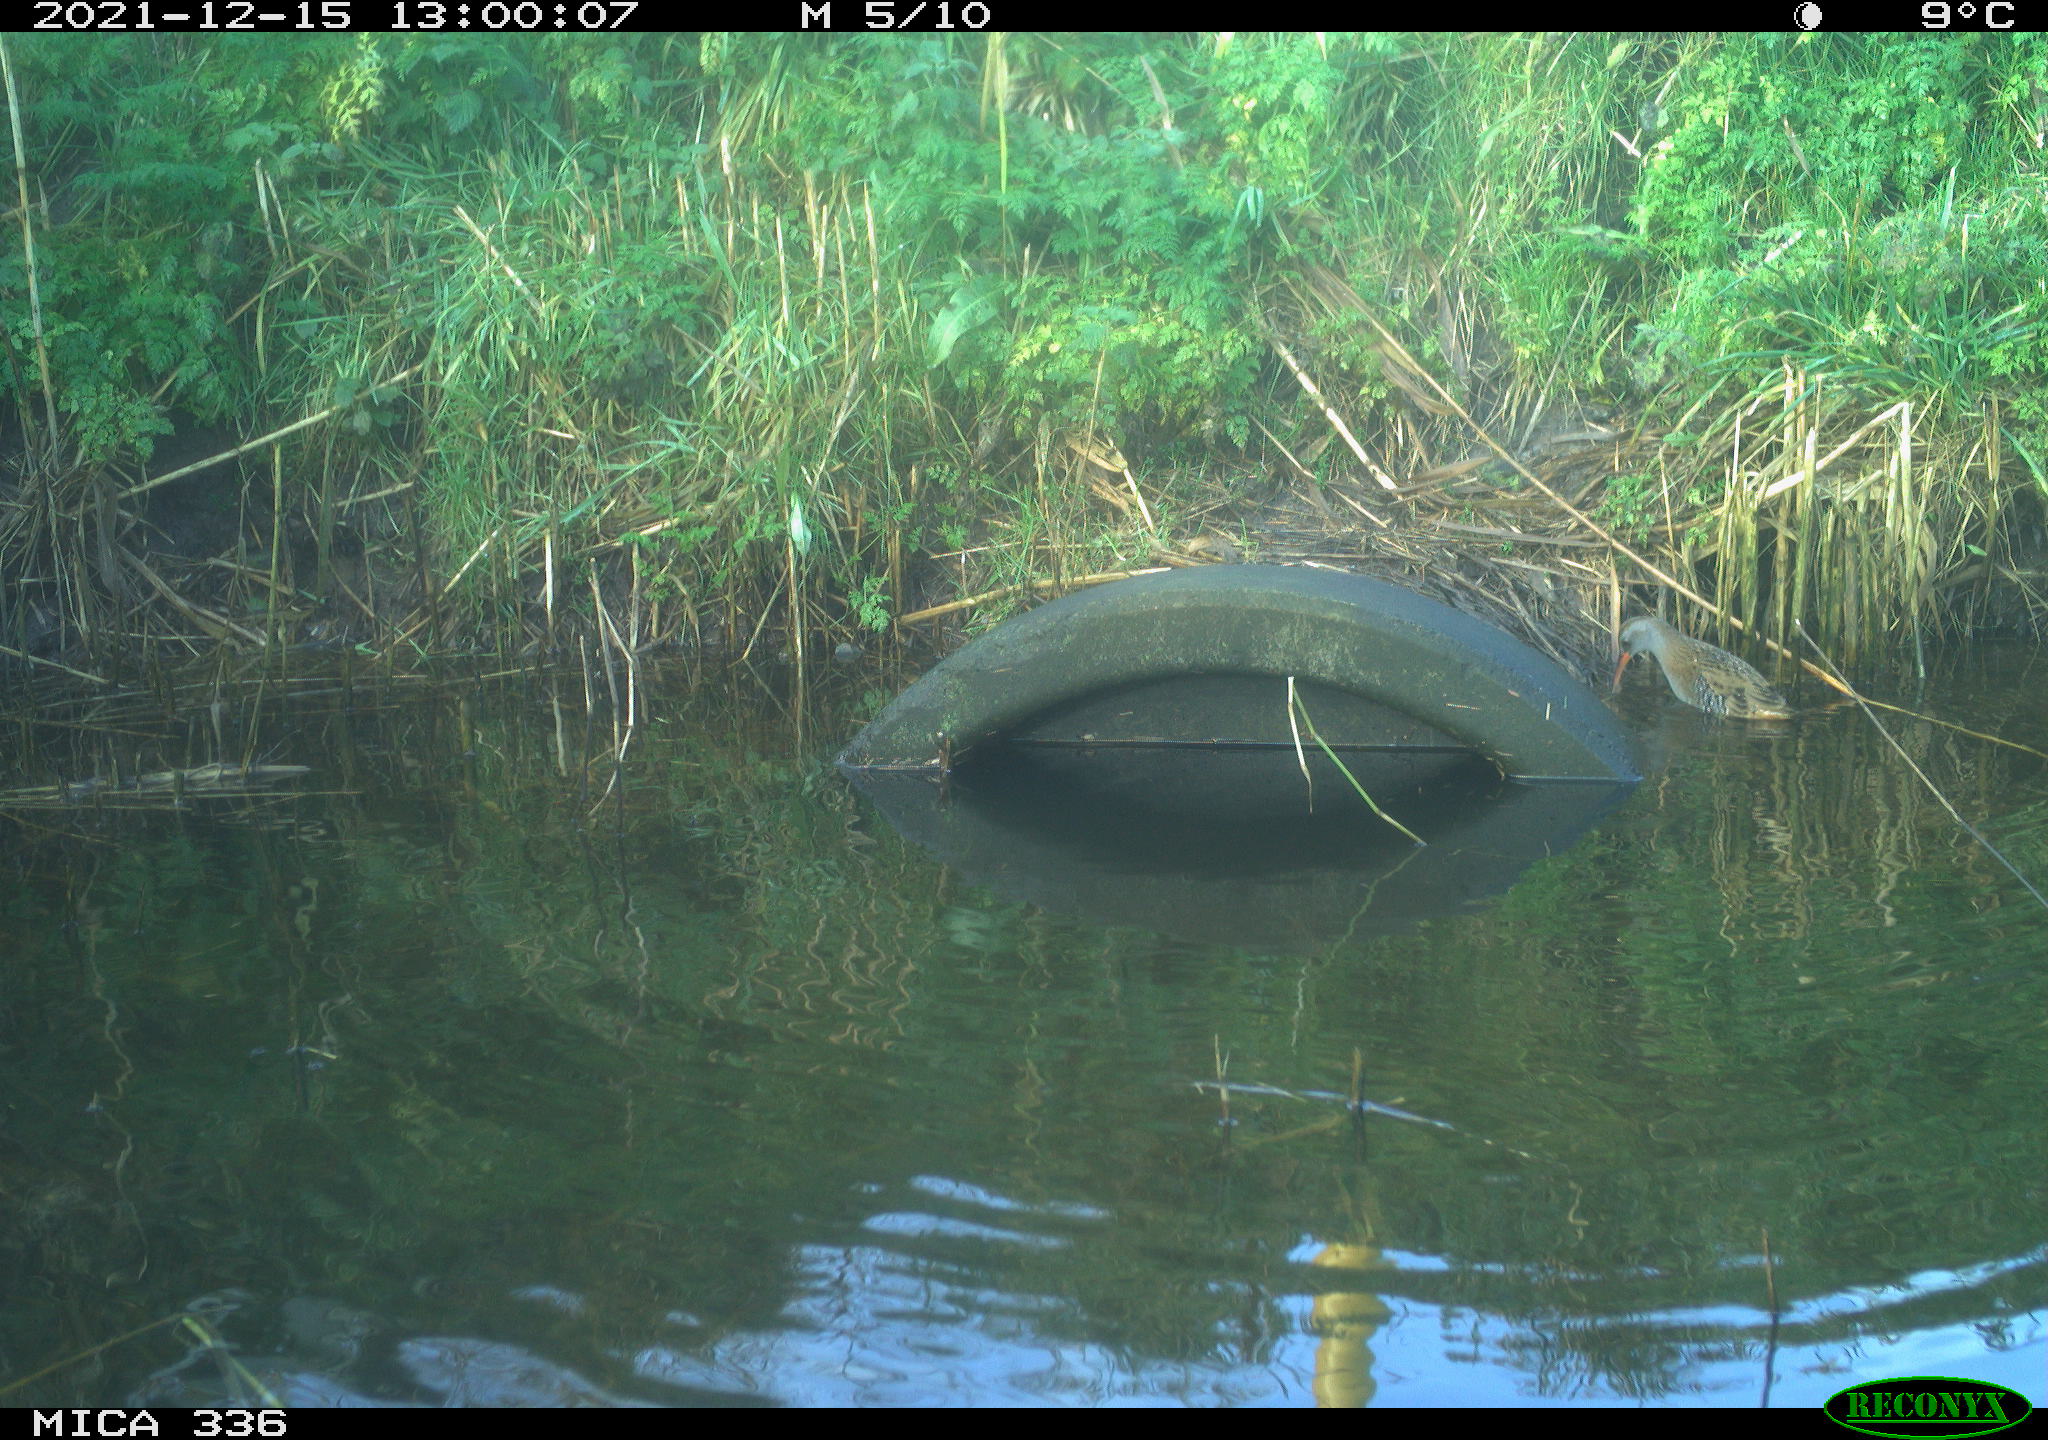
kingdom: Animalia
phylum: Chordata
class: Aves
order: Gruiformes
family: Rallidae
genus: Gallinula
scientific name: Gallinula chloropus
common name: Common moorhen
